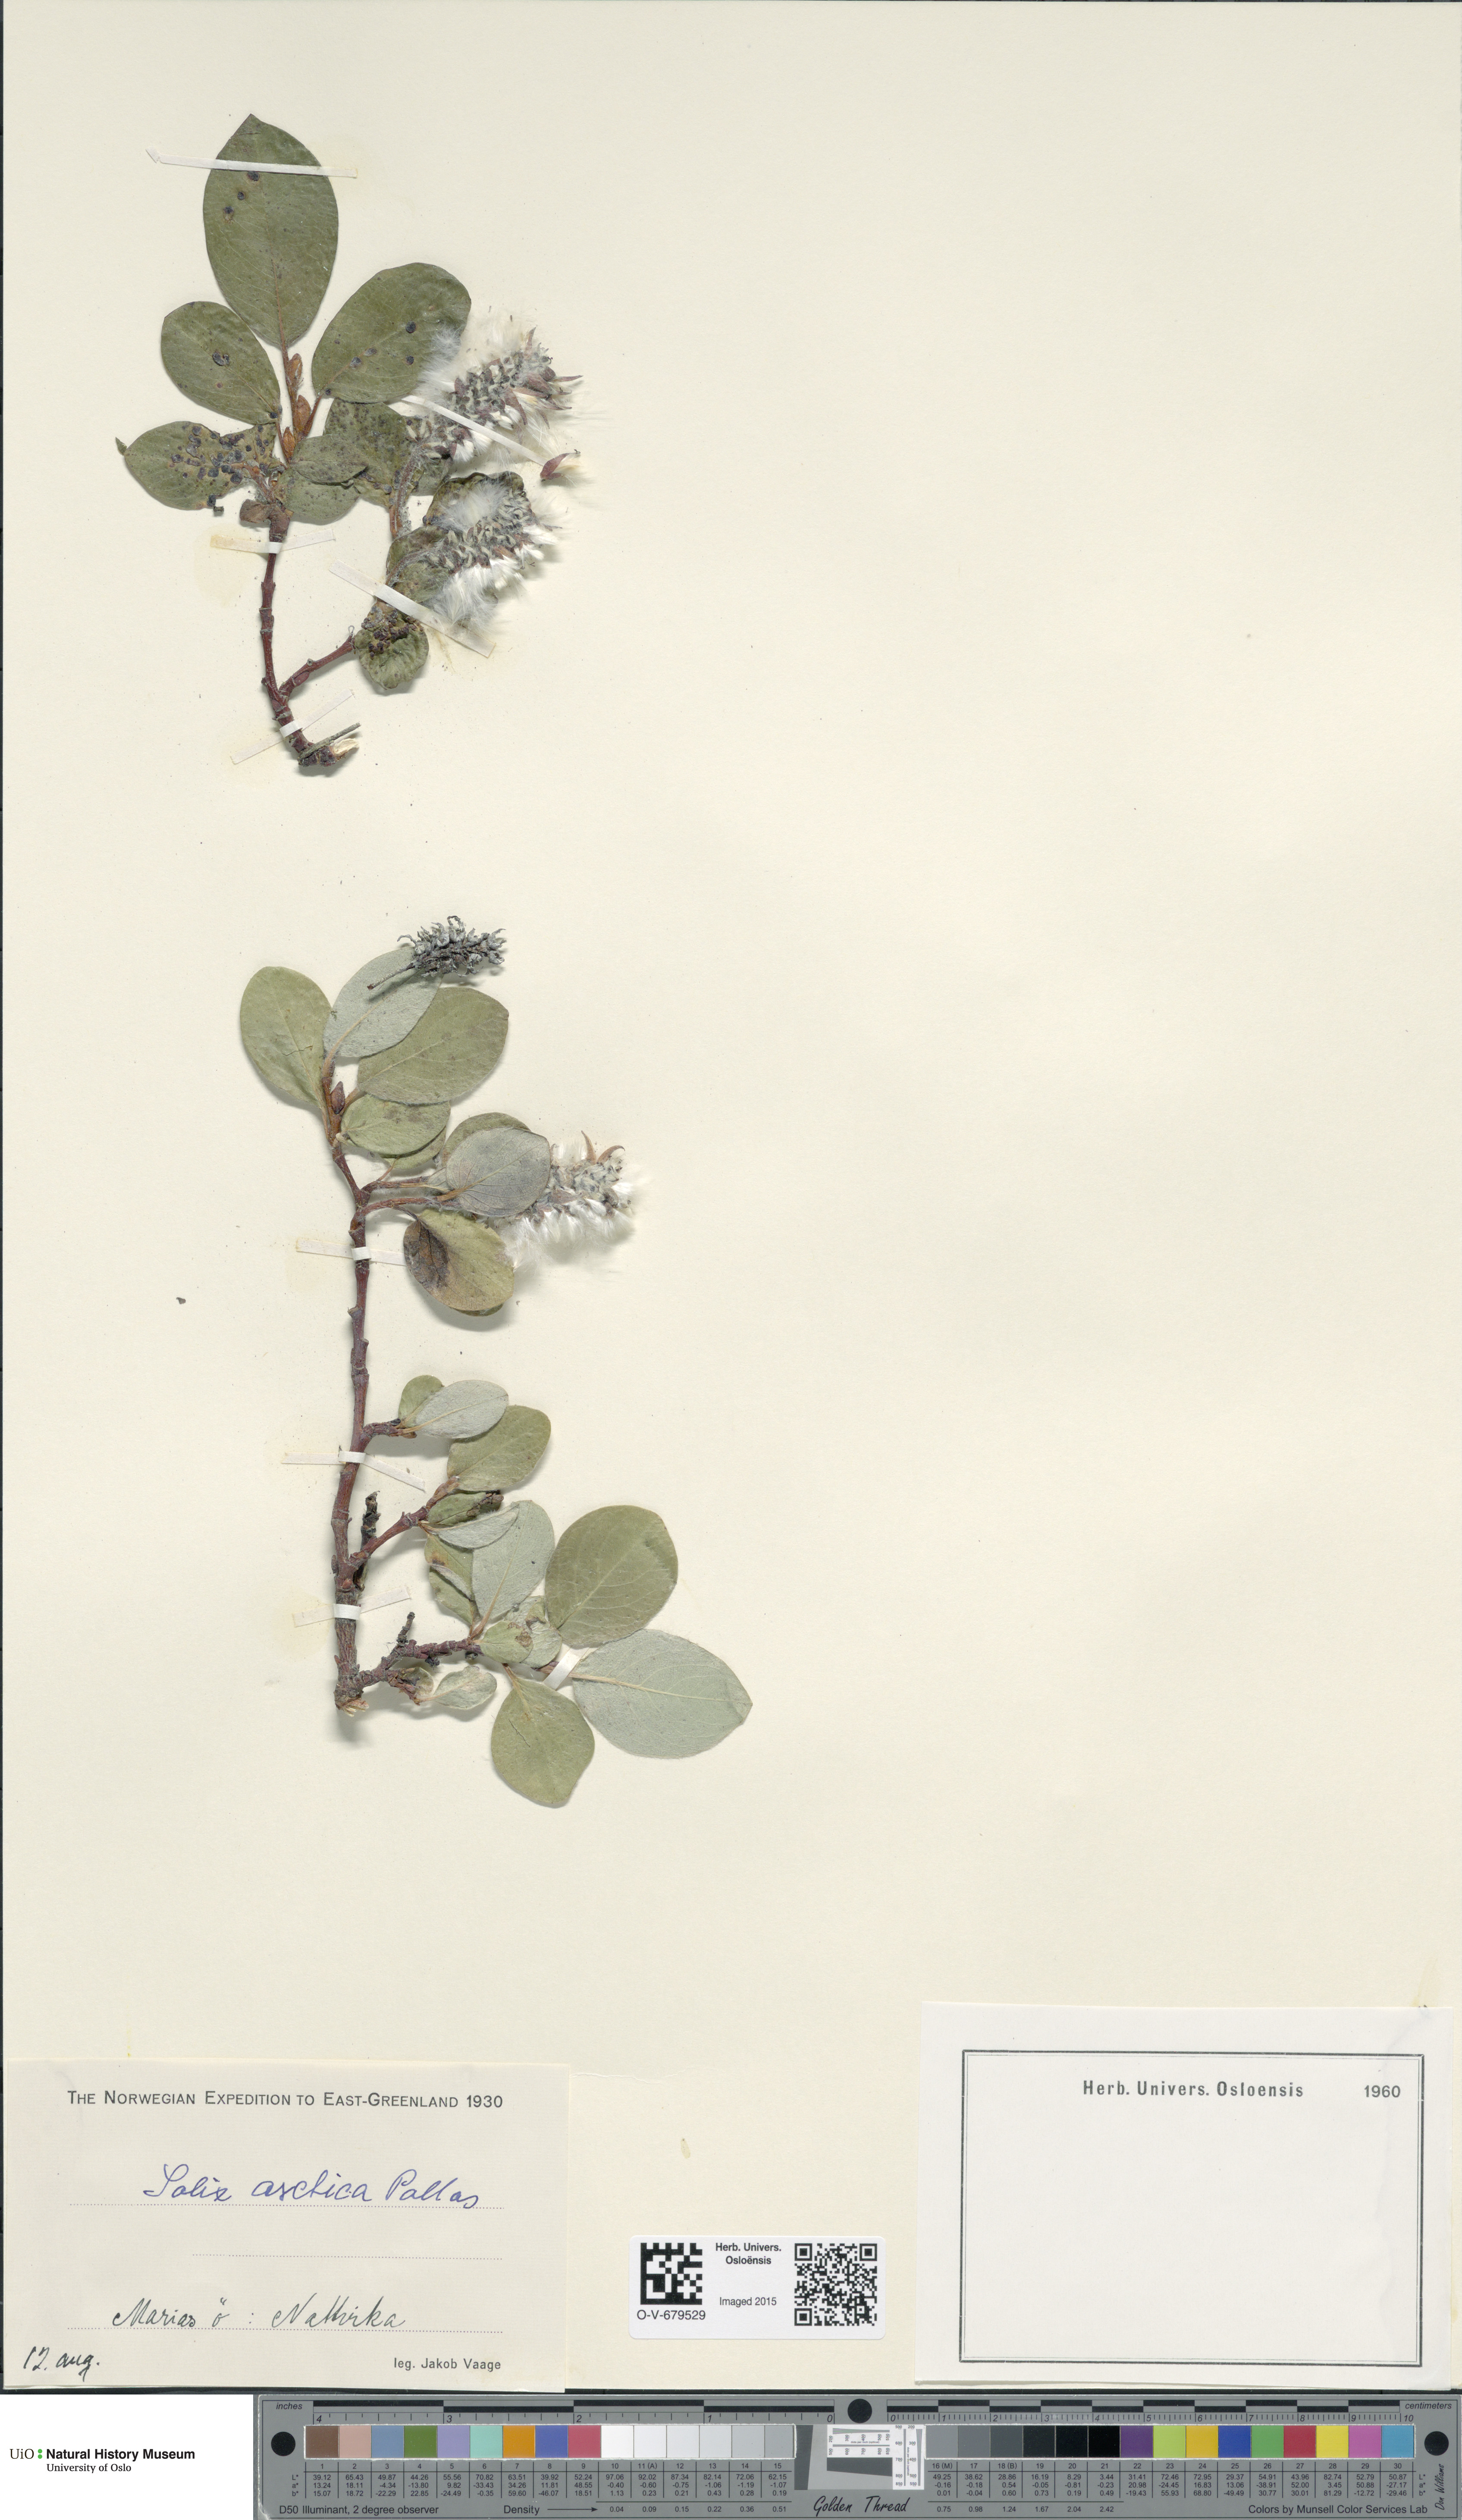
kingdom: Plantae
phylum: Tracheophyta
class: Magnoliopsida
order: Malpighiales
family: Salicaceae
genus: Salix
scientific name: Salix arctica
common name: Arctic willow
